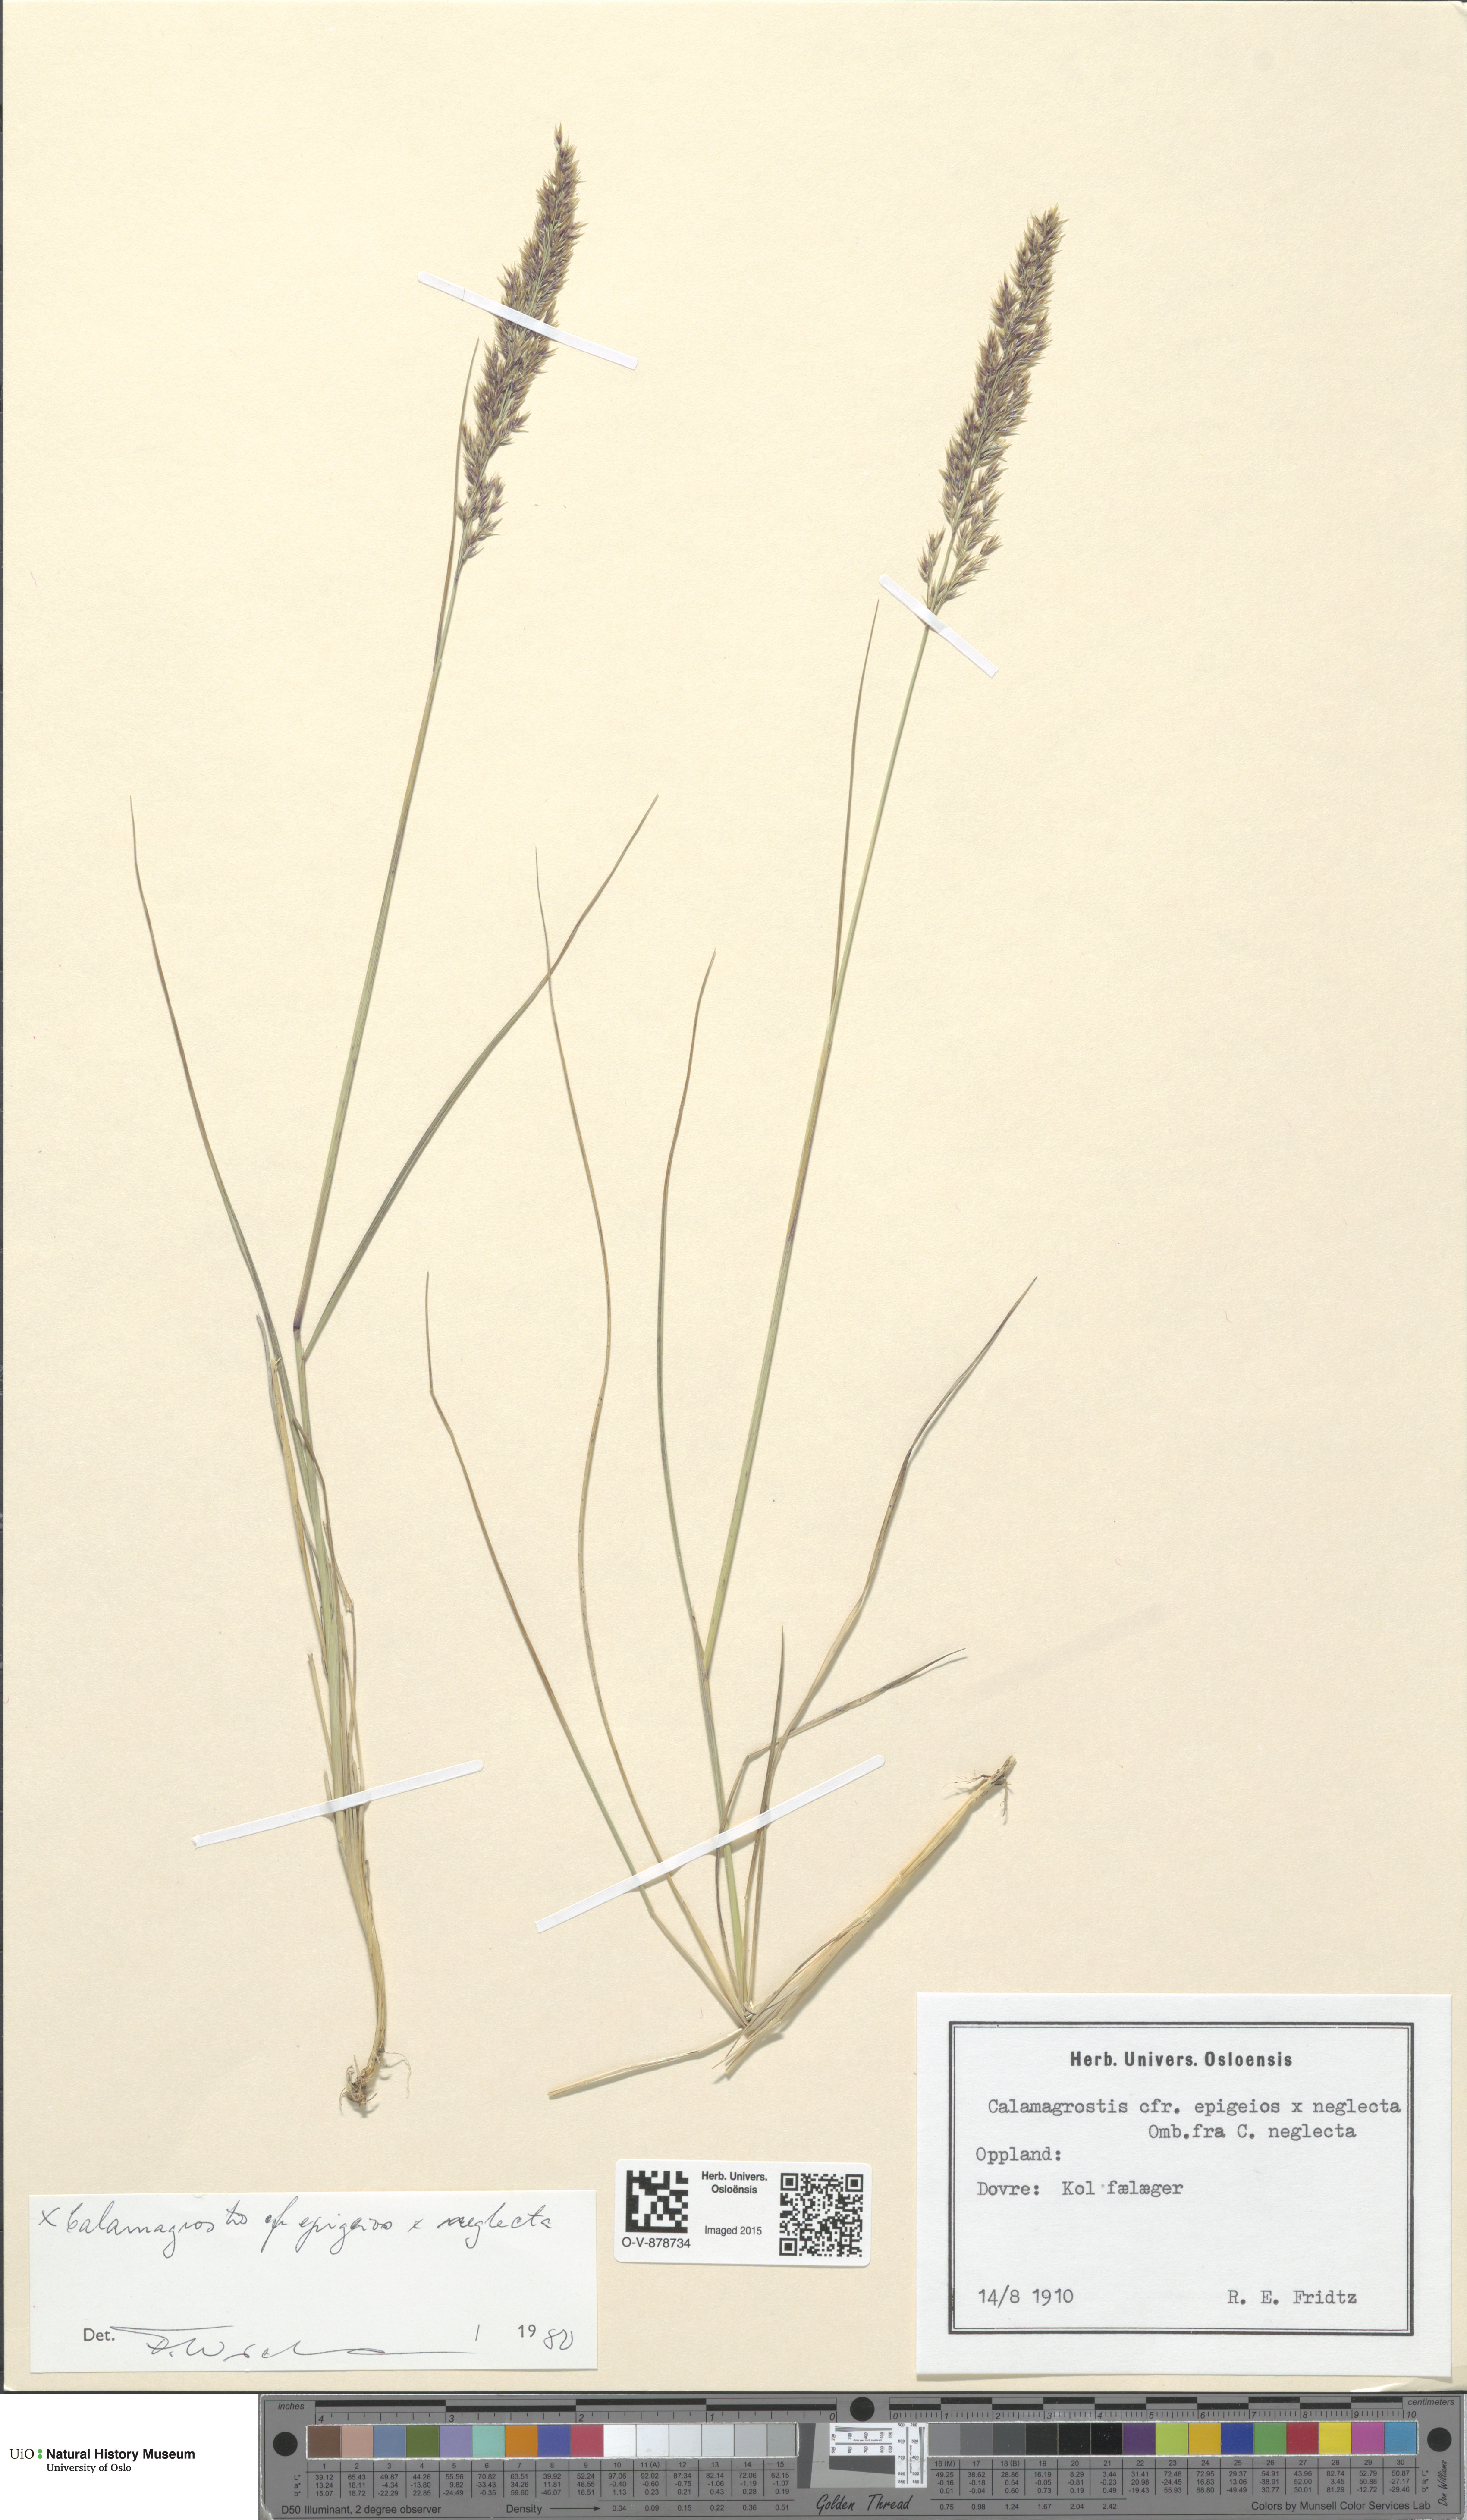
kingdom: Plantae
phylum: Tracheophyta
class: Liliopsida
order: Poales
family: Poaceae
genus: Calamagrostis
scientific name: Calamagrostis
